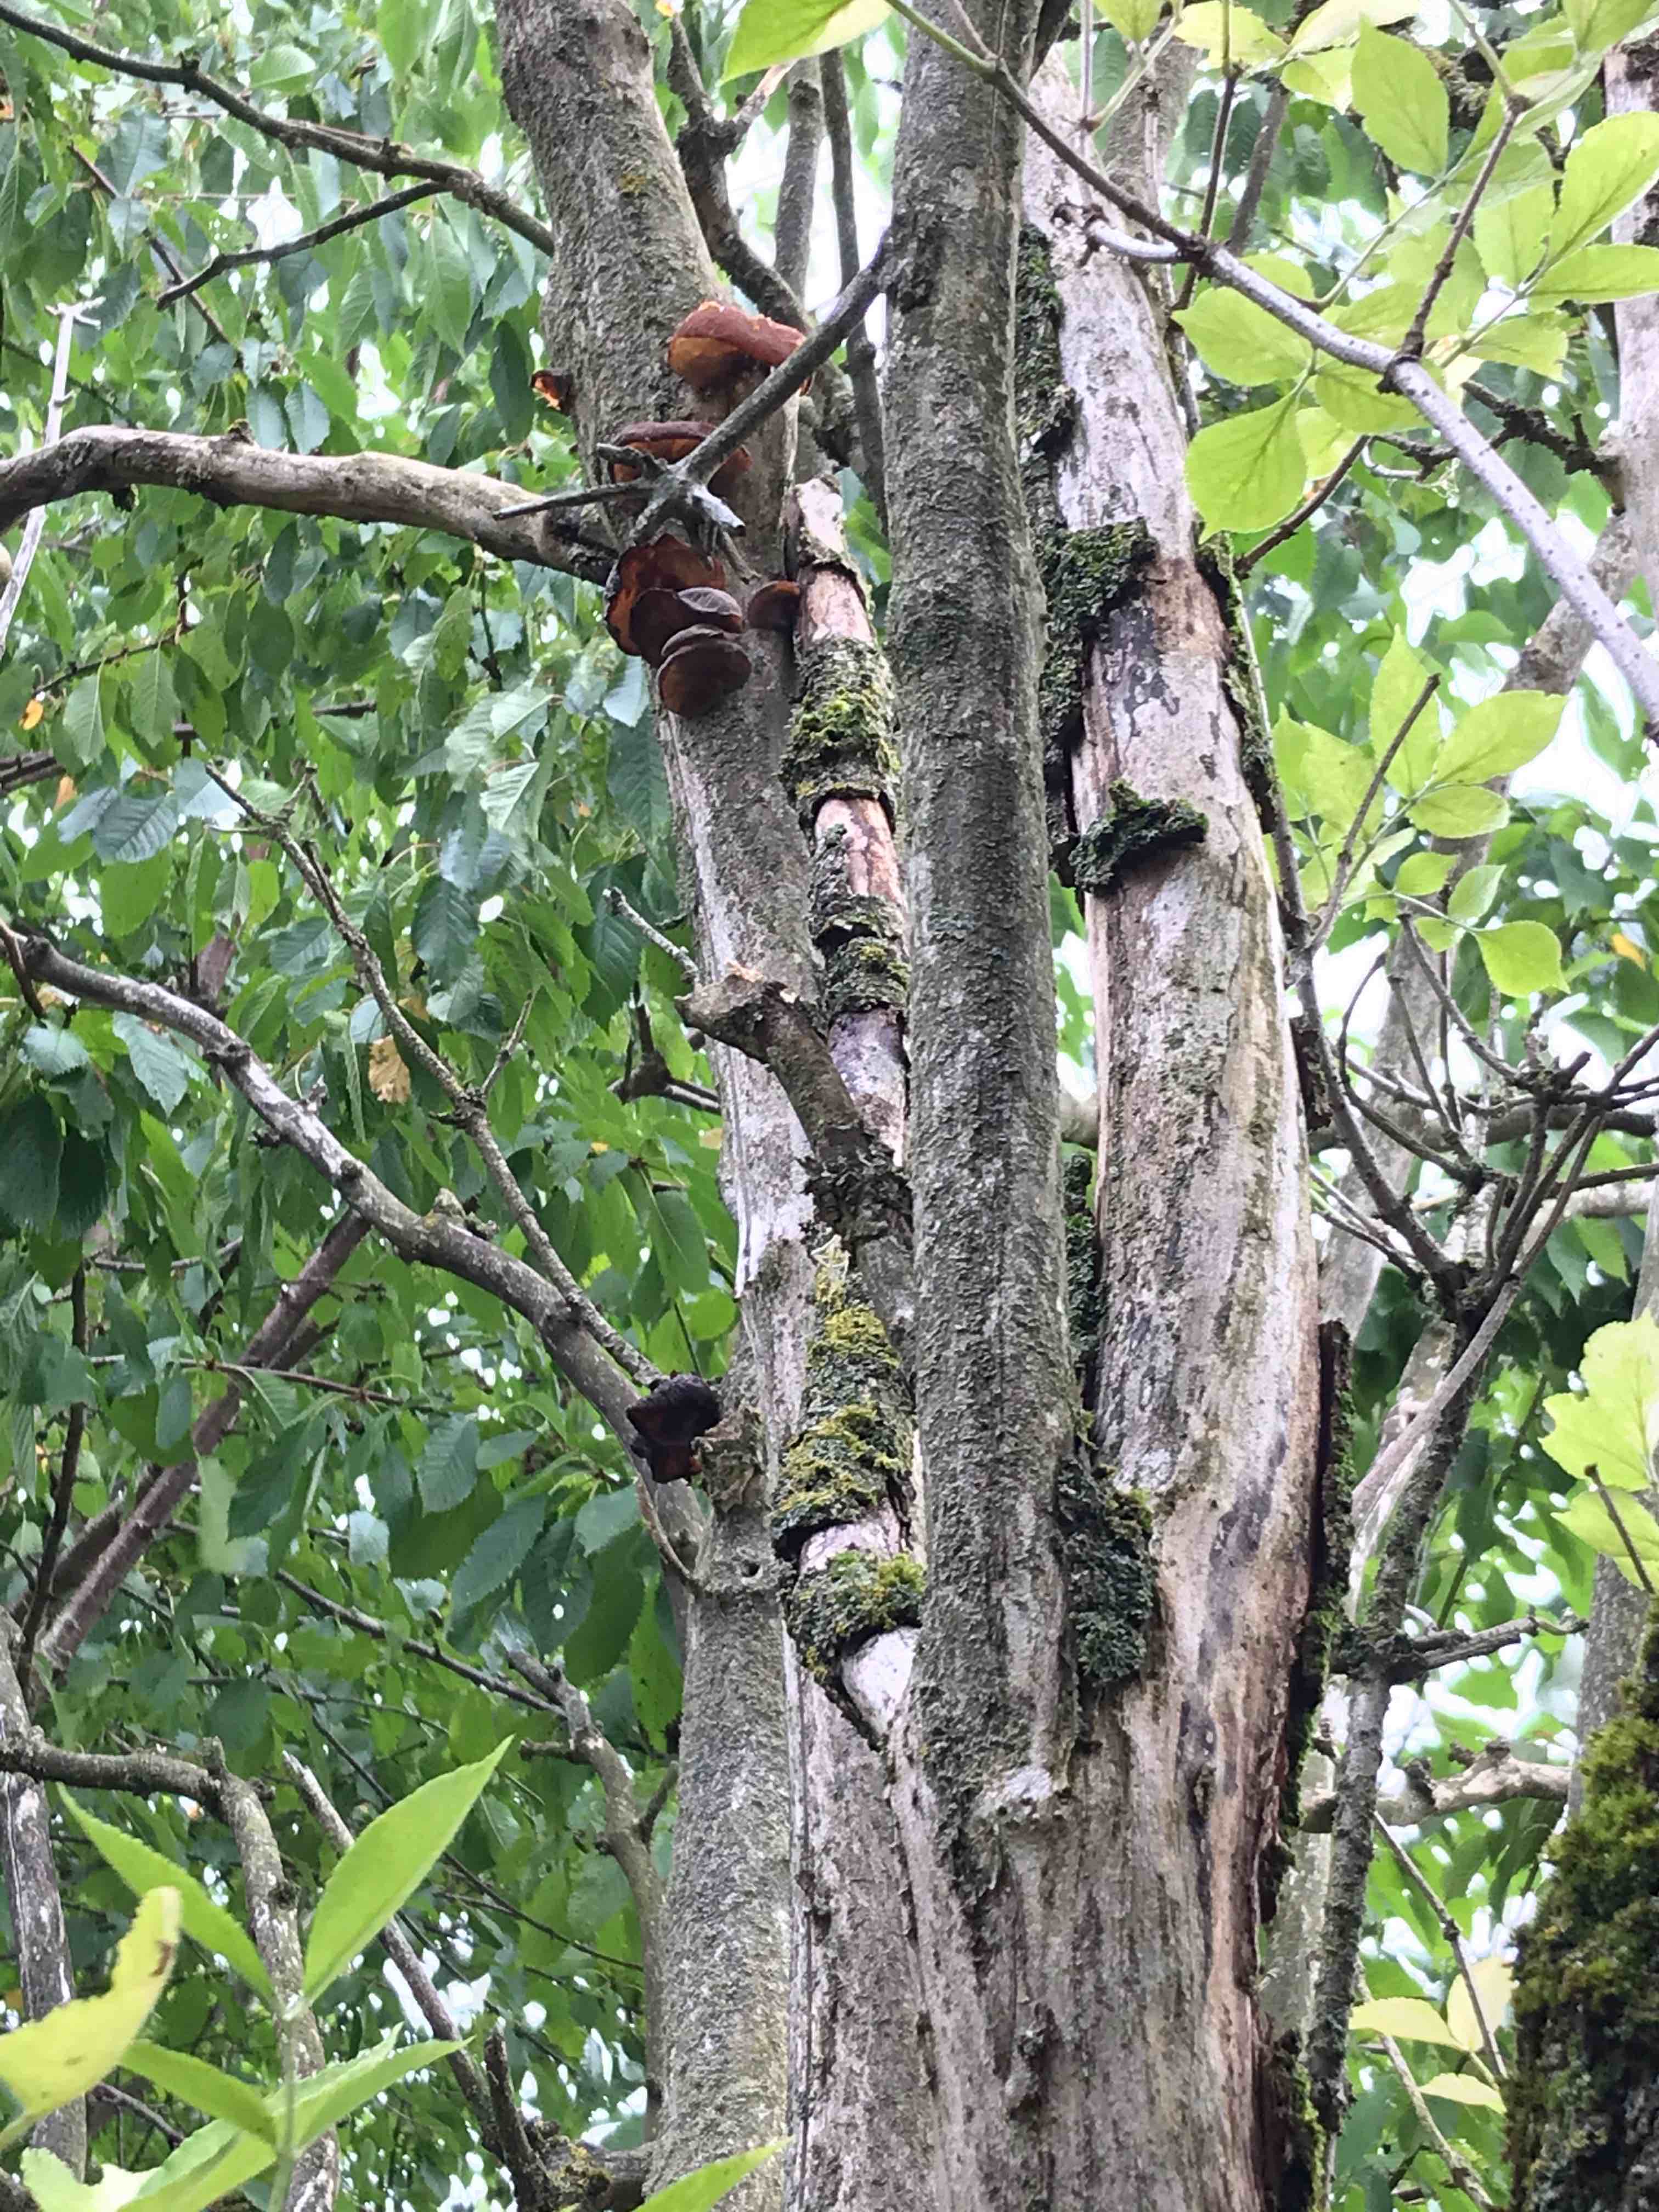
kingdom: Fungi
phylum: Basidiomycota
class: Agaricomycetes
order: Auriculariales
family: Auriculariaceae
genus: Auricularia
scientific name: Auricularia auricula-judae
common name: almindelig judasøre
